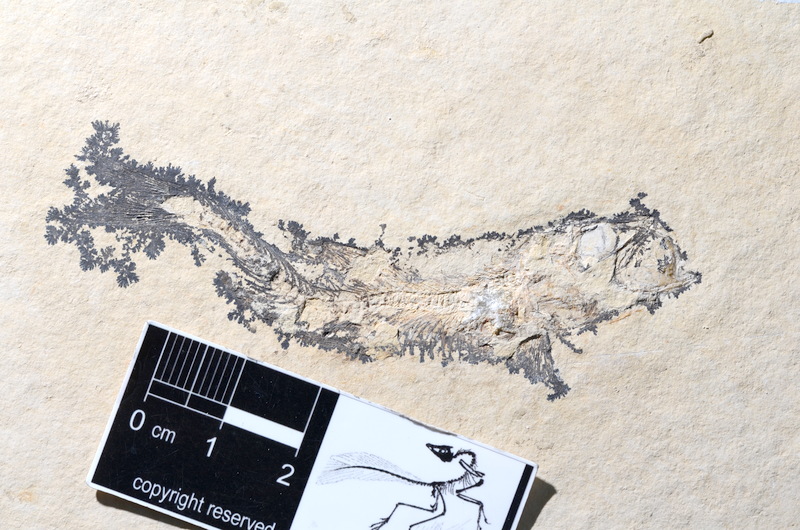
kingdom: Animalia
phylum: Chordata
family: Ascalaboidae
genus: Tharsis
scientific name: Tharsis dubius
